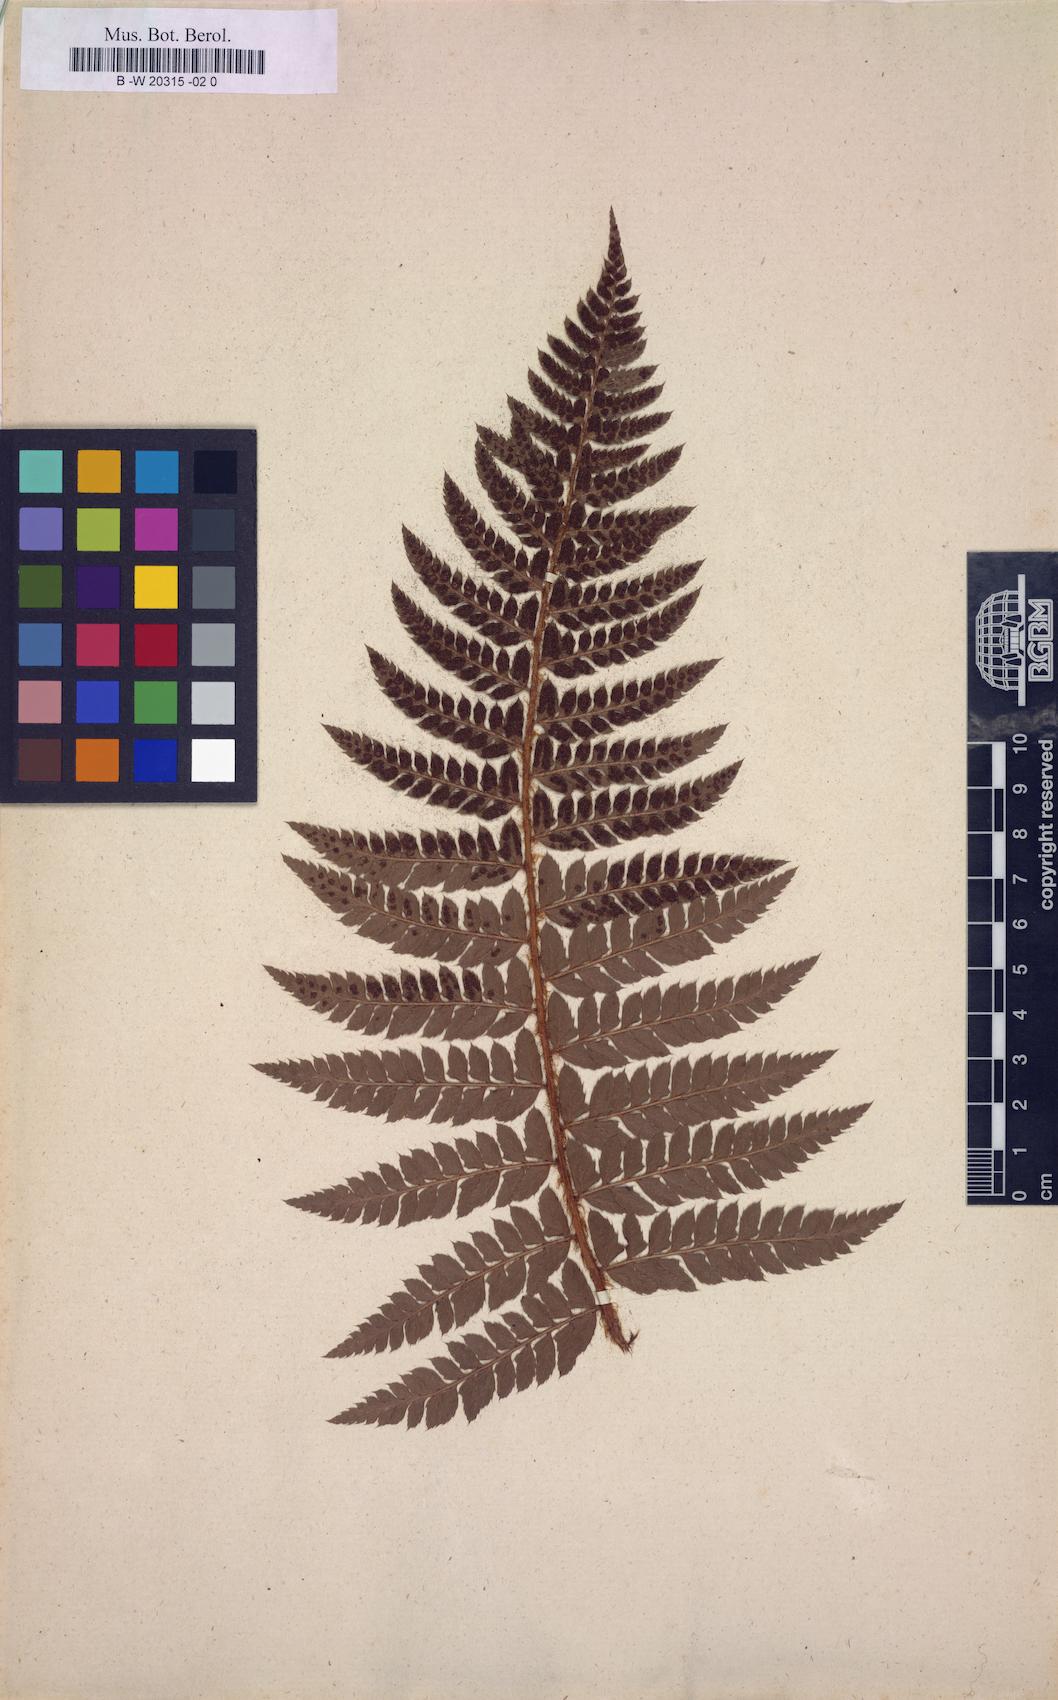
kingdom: Plantae
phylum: Tracheophyta
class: Polypodiopsida
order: Polypodiales
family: Dryopteridaceae
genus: Polystichum
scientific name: Polystichum
